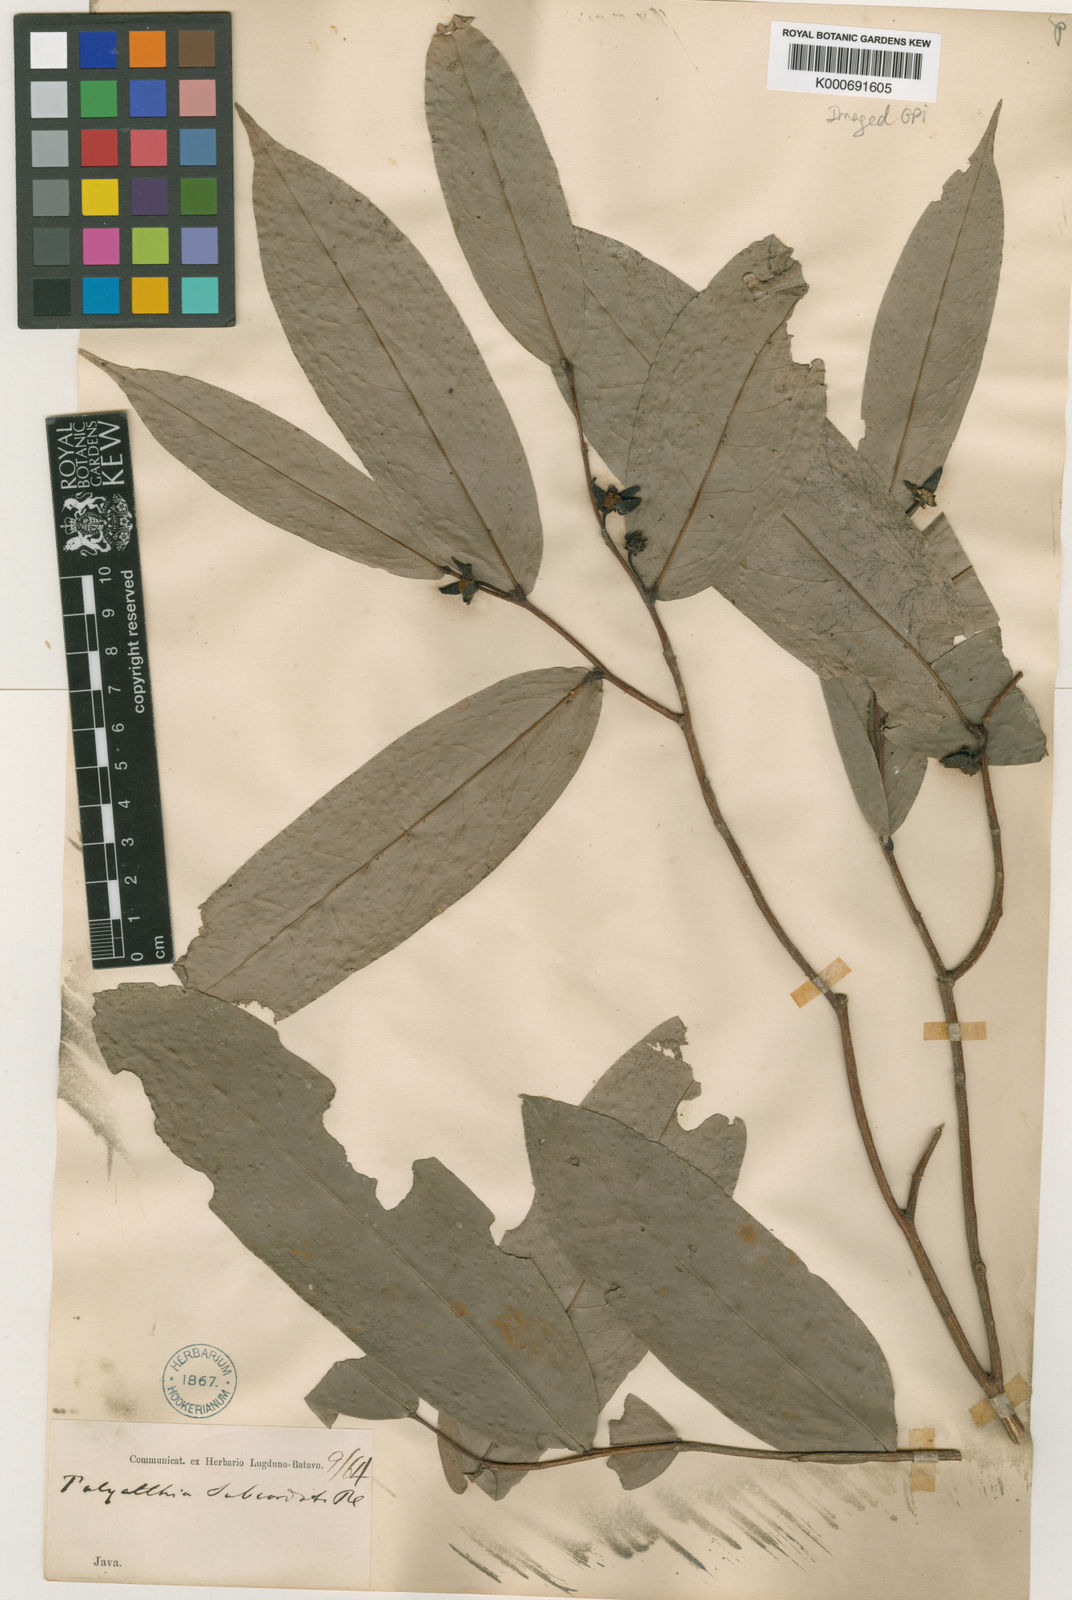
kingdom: Plantae
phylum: Tracheophyta
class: Magnoliopsida
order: Magnoliales
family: Annonaceae
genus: Polyalthia
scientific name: Polyalthia subcordata
